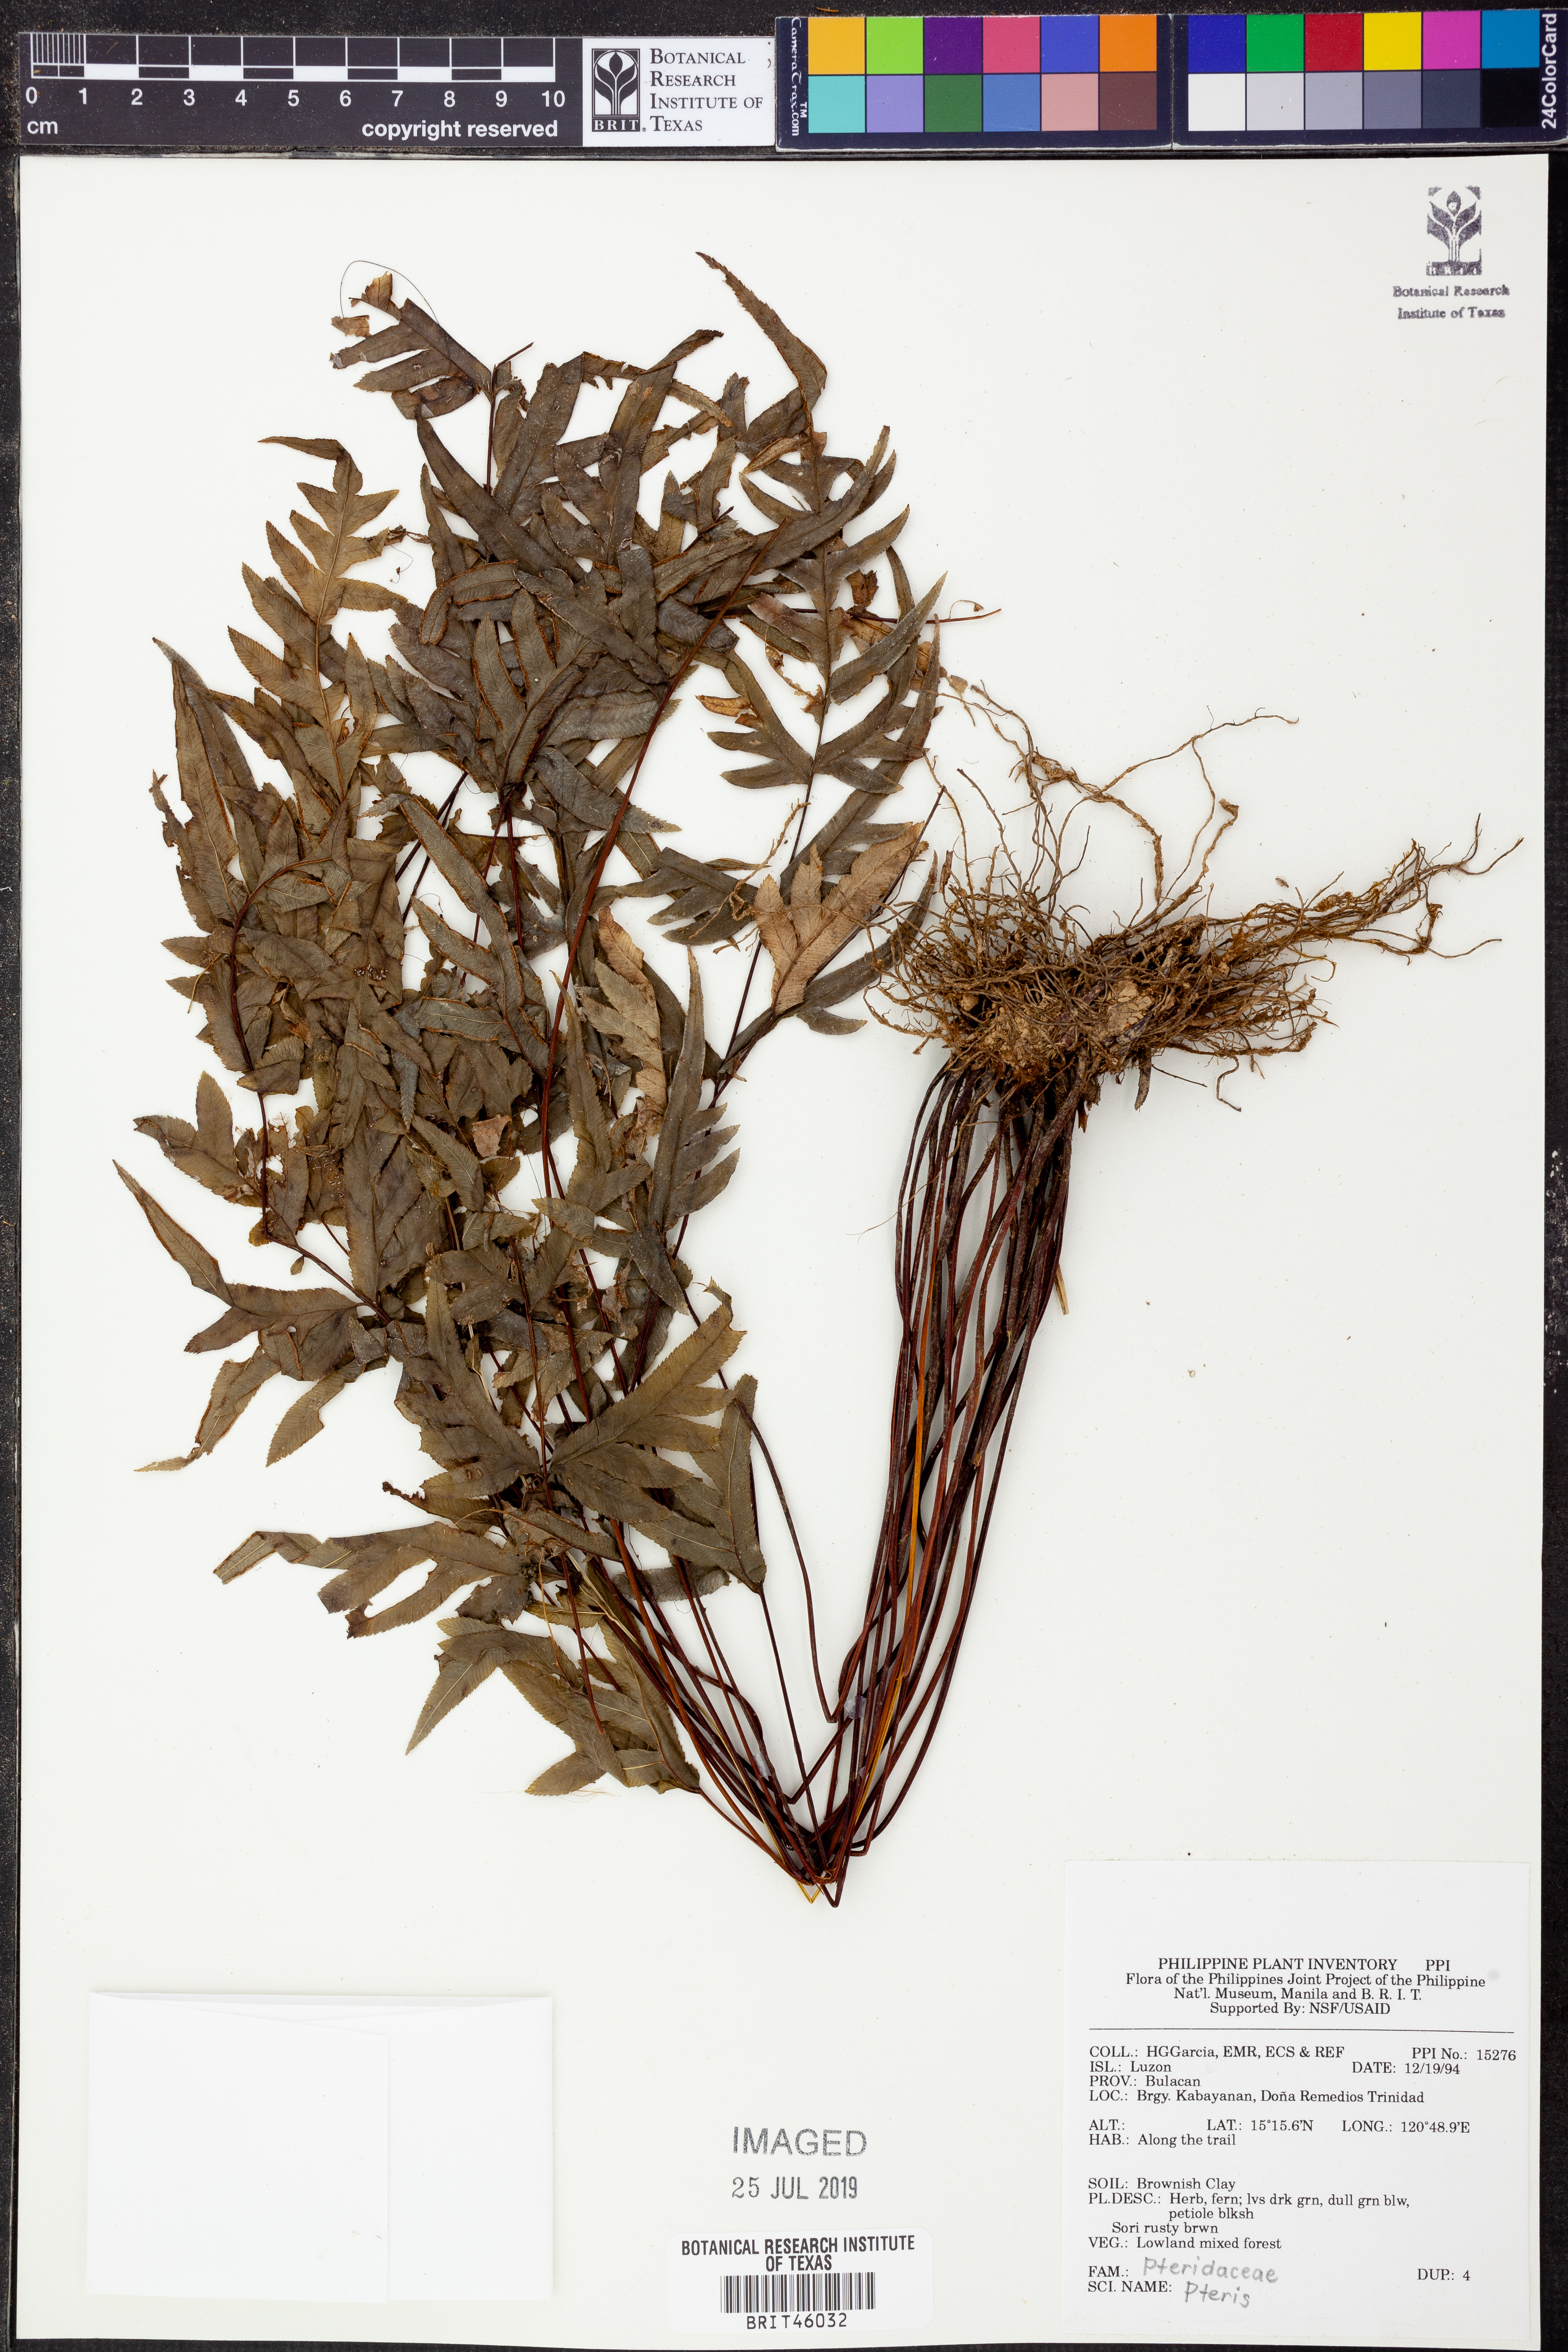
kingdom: Plantae
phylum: Tracheophyta
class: Polypodiopsida
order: Polypodiales
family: Pteridaceae
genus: Pteris
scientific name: Pteris
